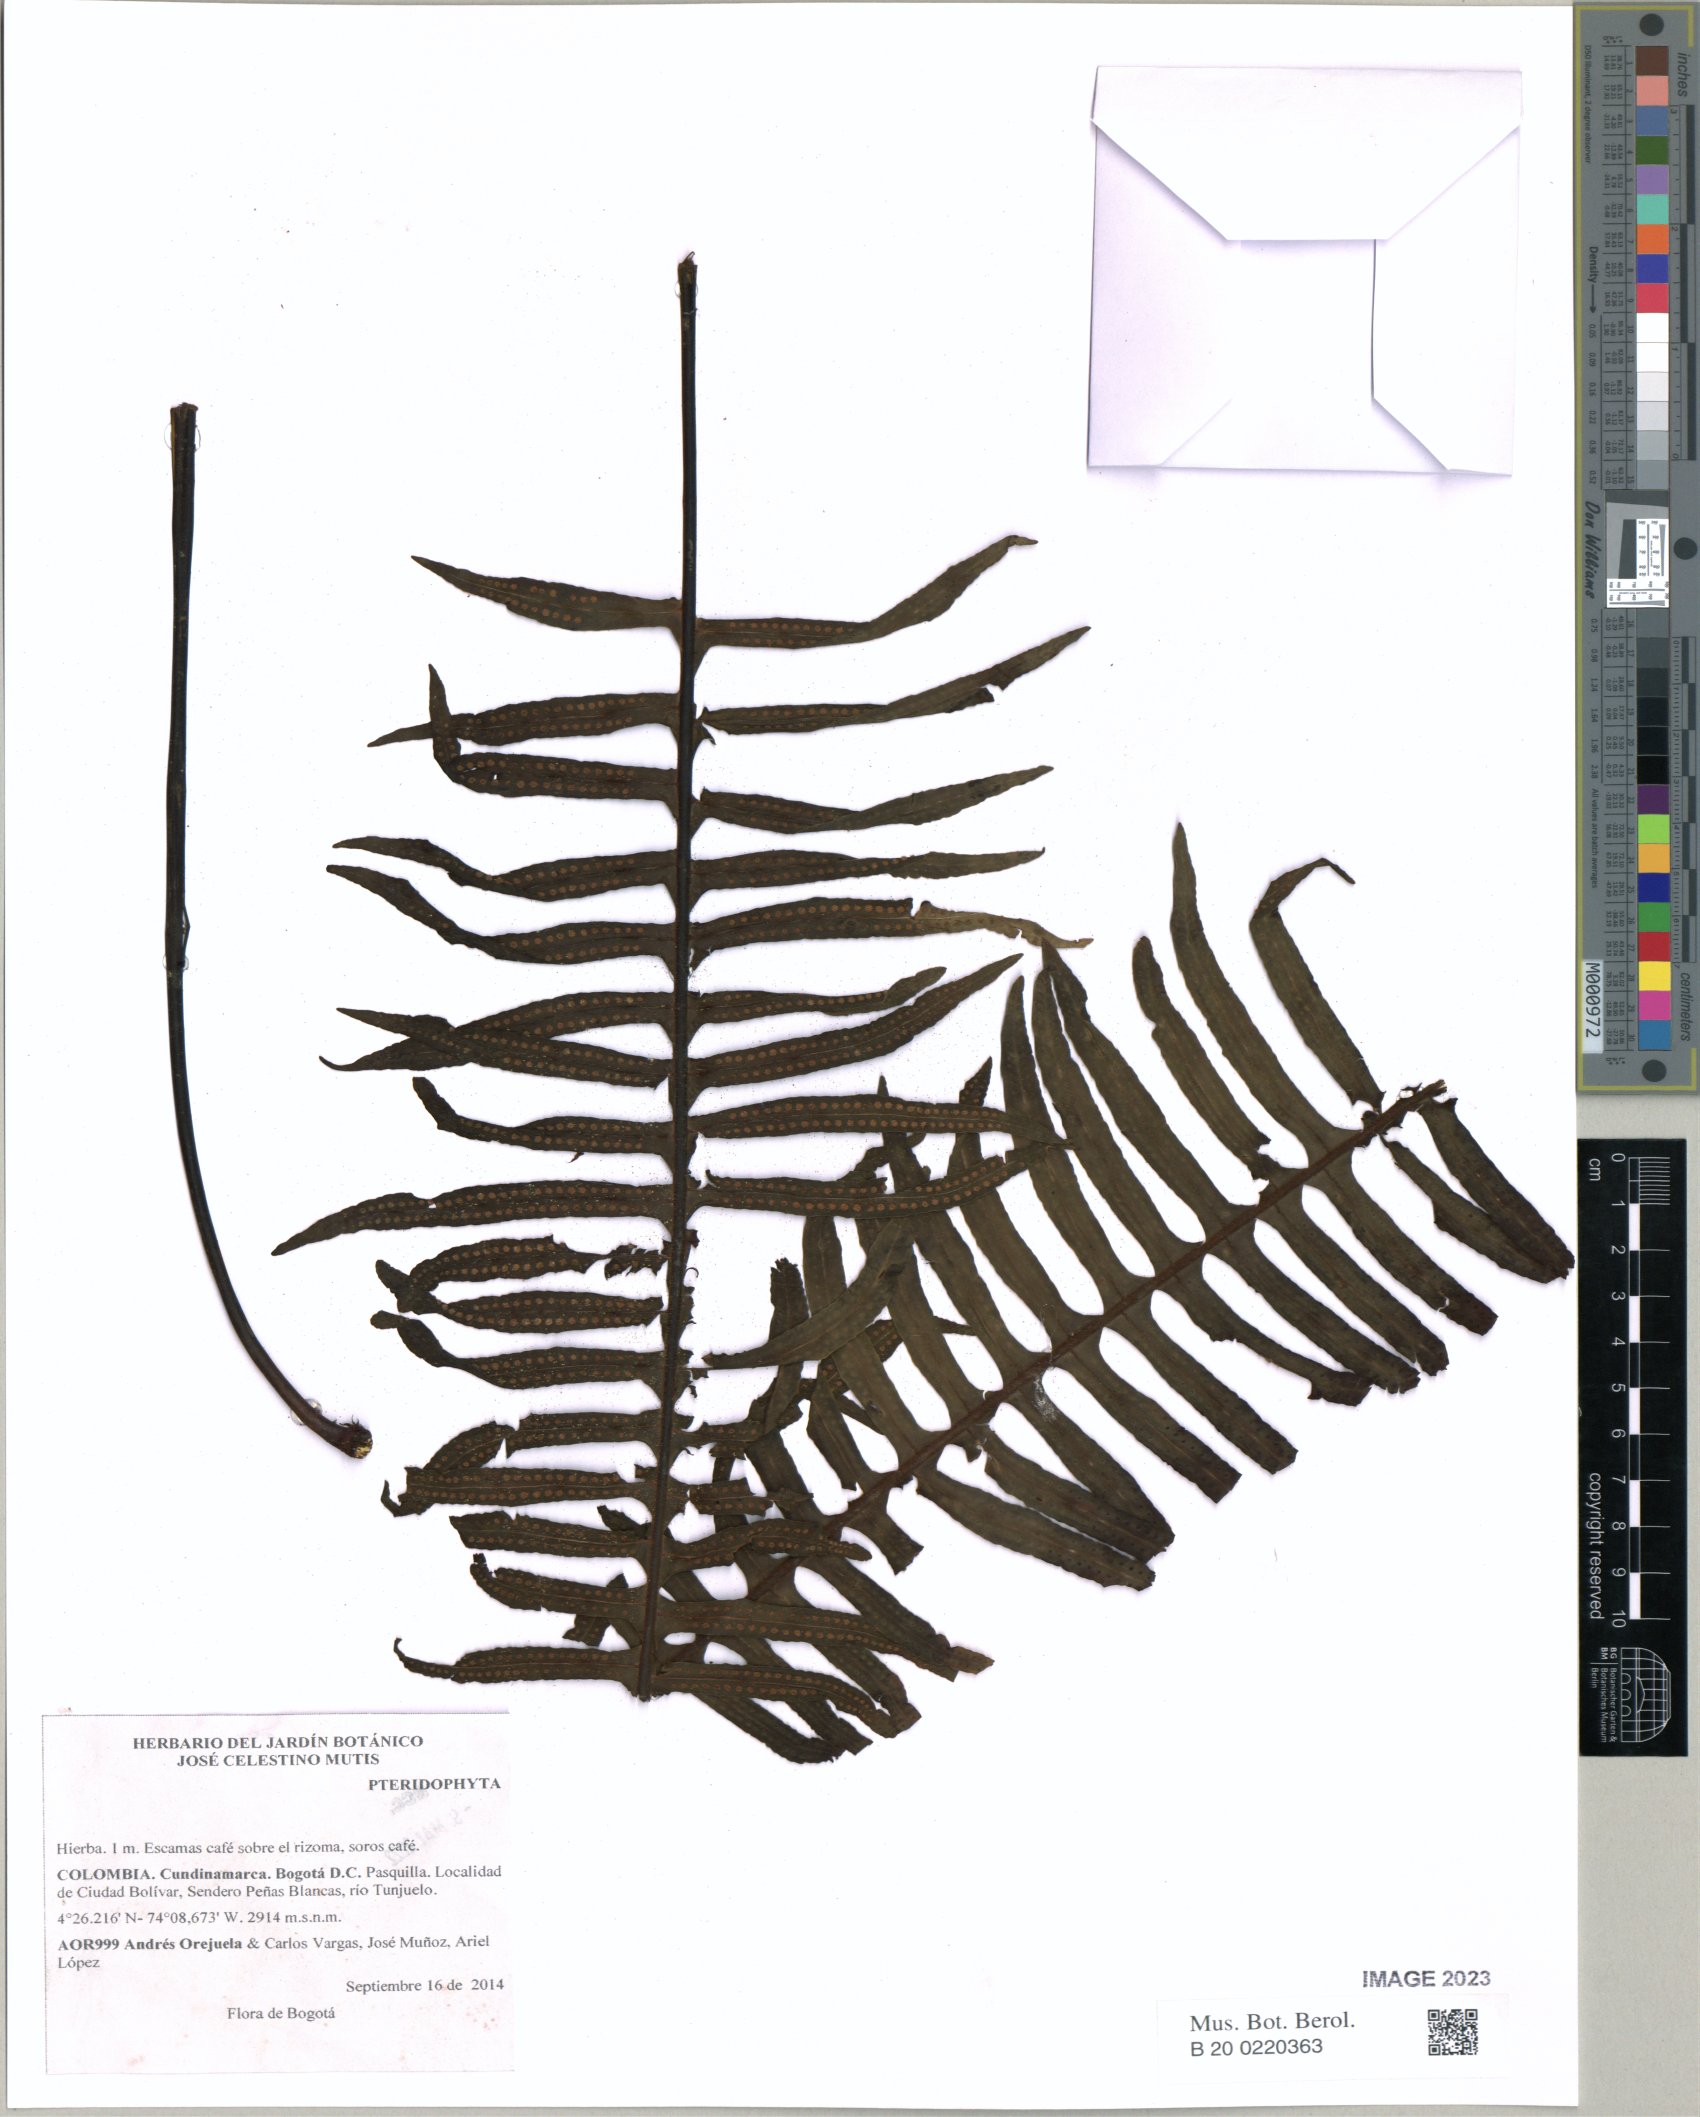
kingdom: Plantae
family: Pteridophyta
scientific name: Pteridophyta
